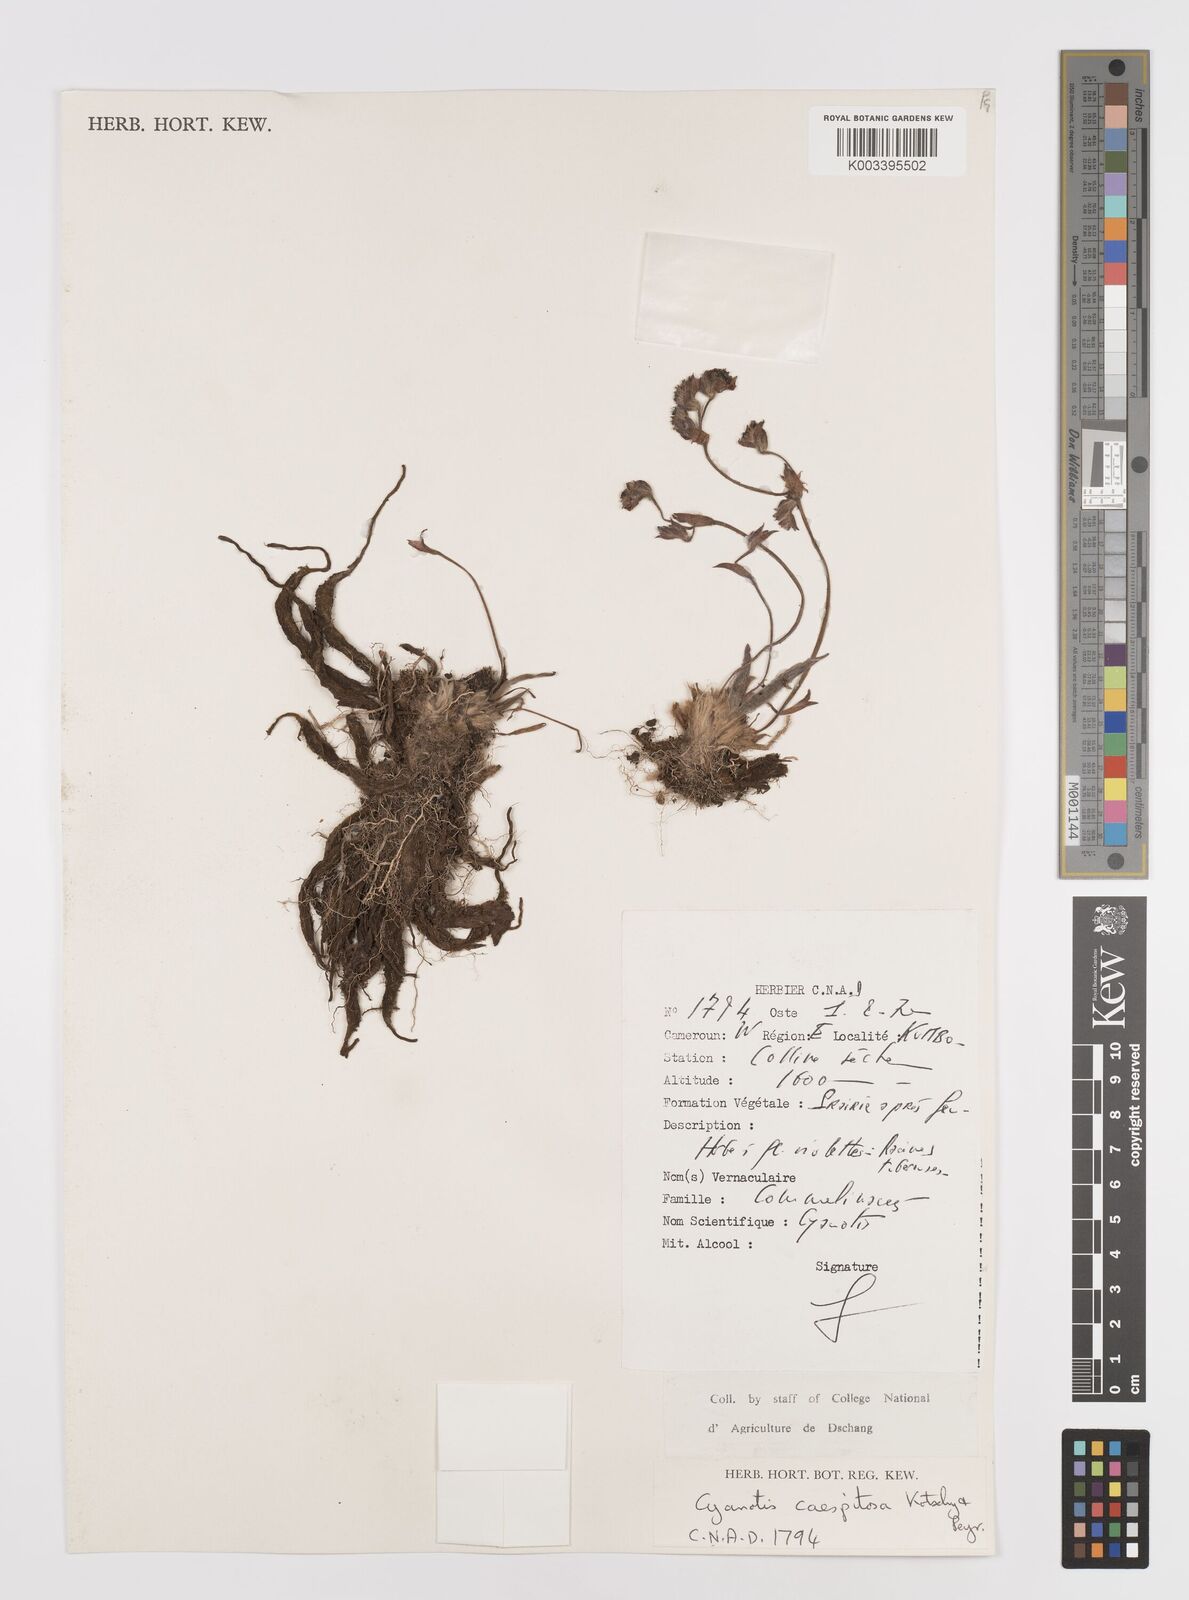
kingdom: Plantae
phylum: Tracheophyta
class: Liliopsida
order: Commelinales
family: Commelinaceae
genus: Cyanotis
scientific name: Cyanotis caespitosa
